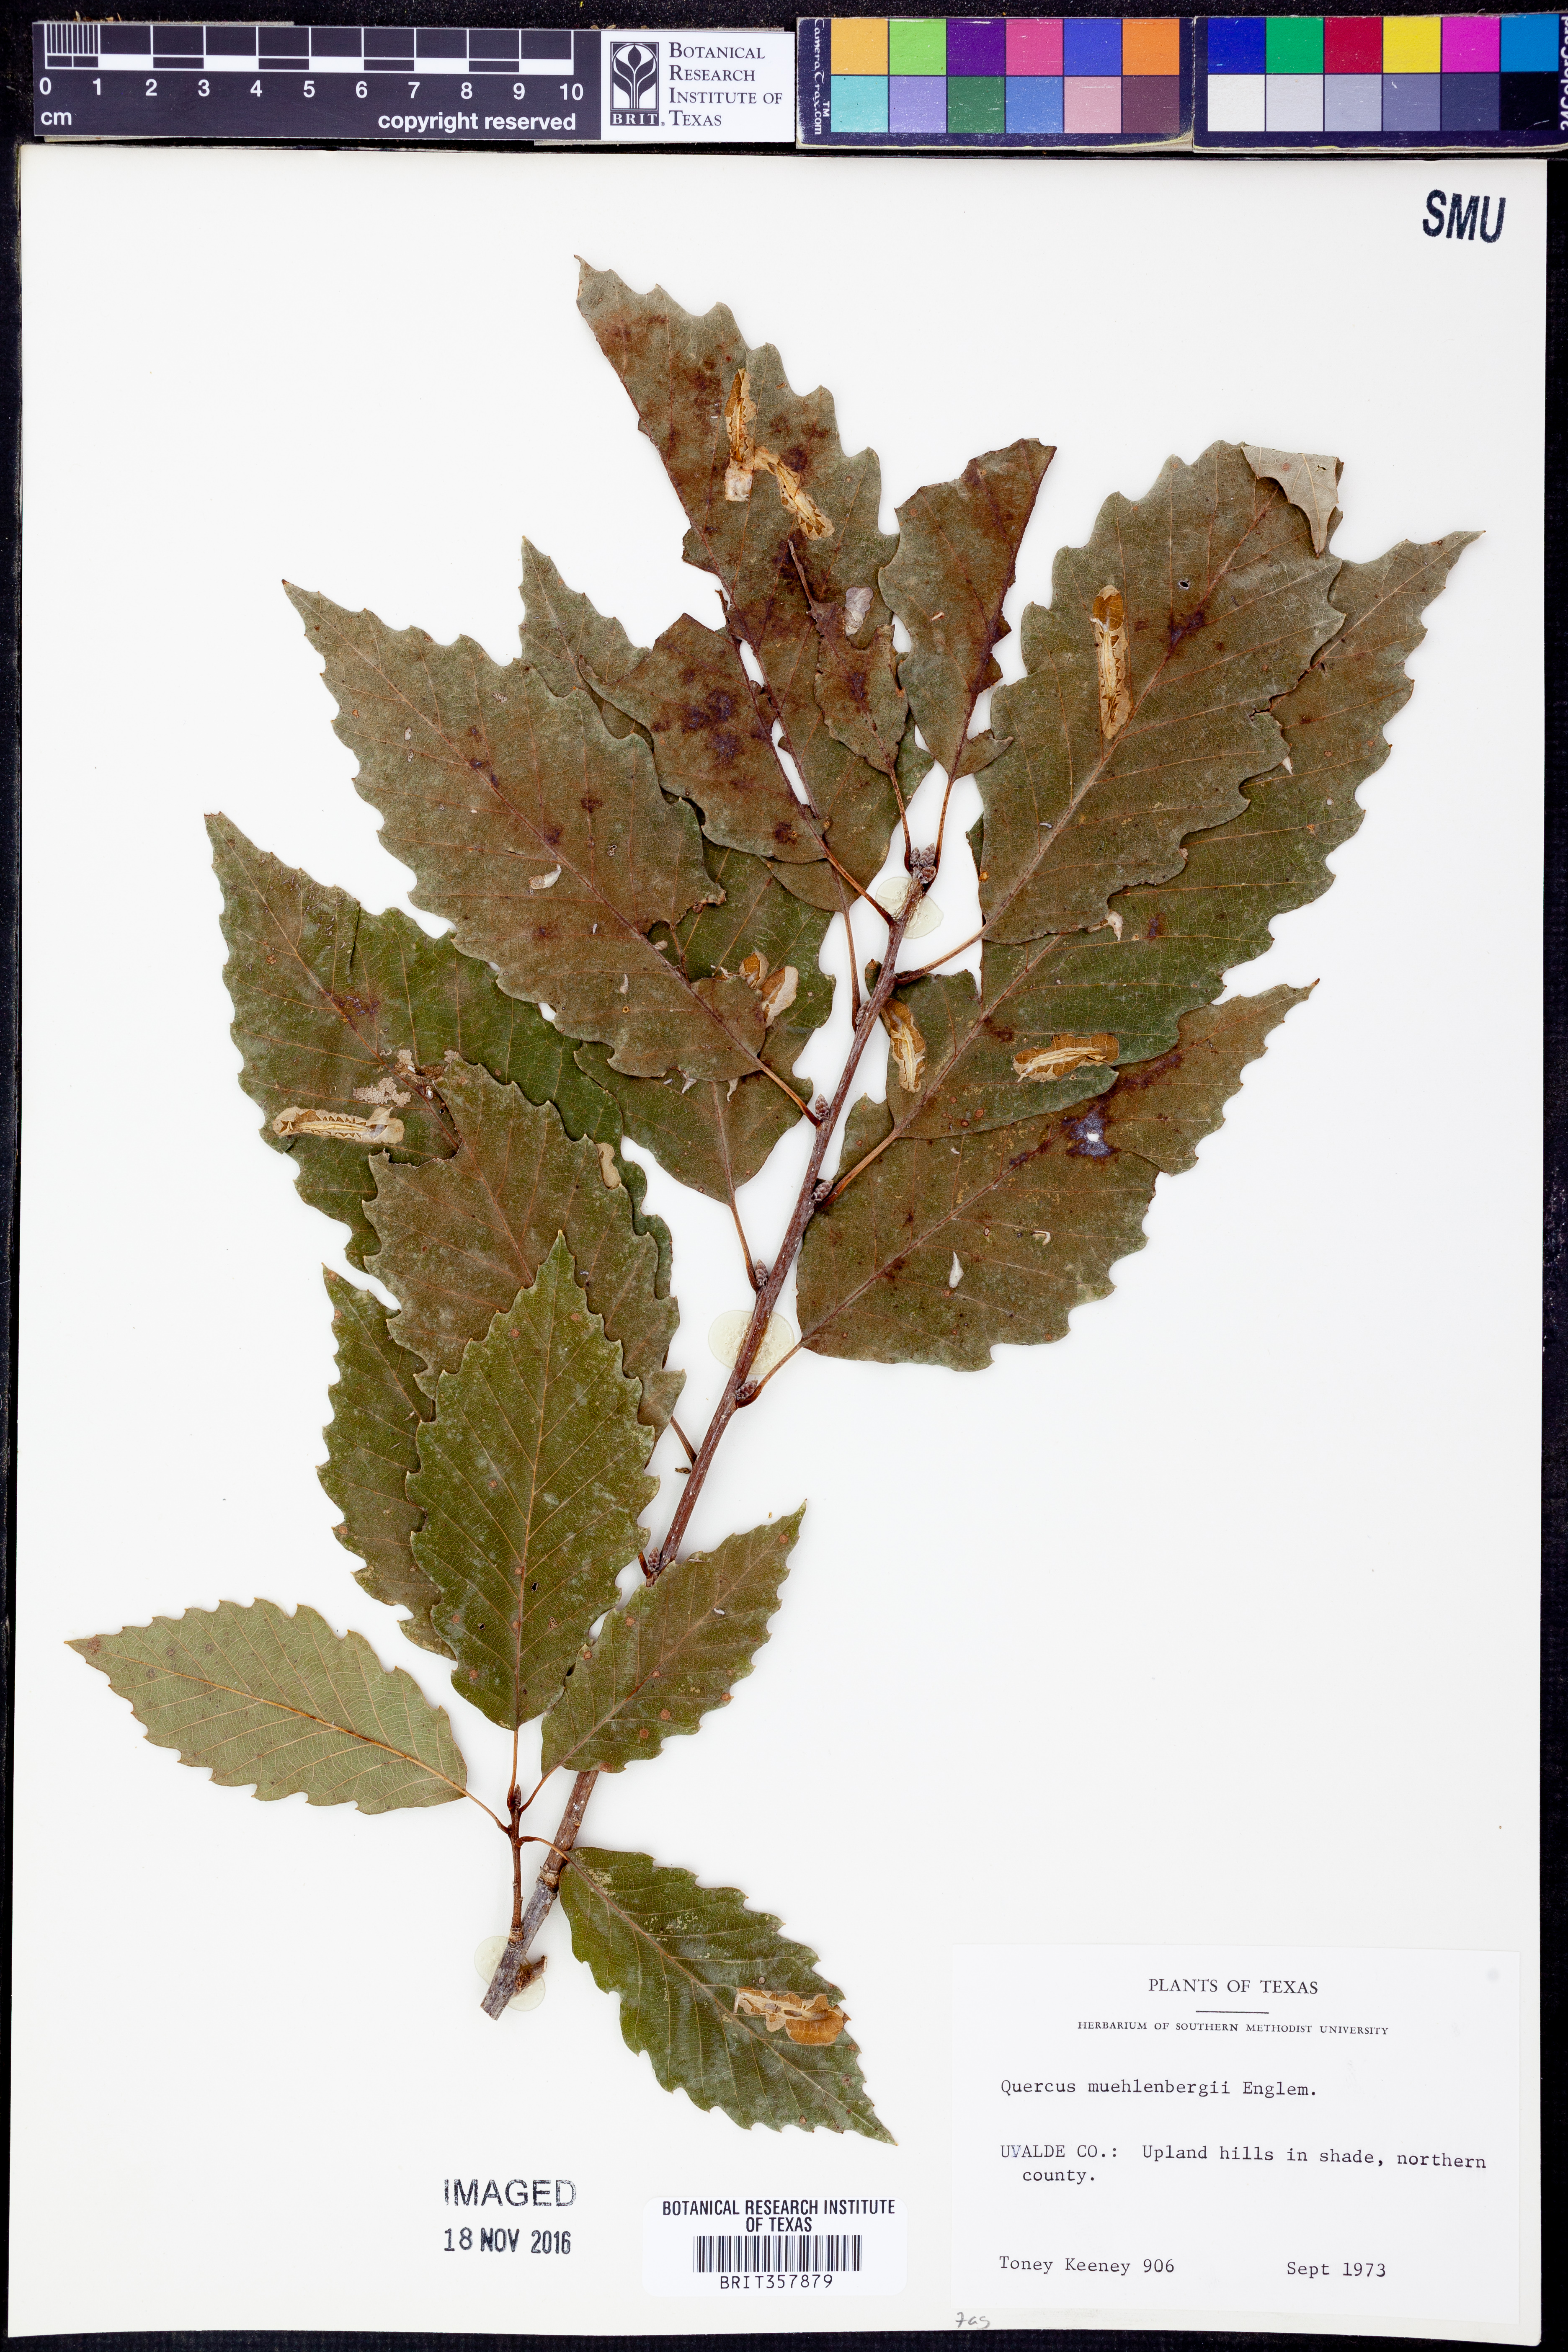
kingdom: Plantae
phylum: Tracheophyta
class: Magnoliopsida
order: Fagales
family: Fagaceae
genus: Quercus
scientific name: Quercus muehlenbergii
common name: Chinkapin oak
